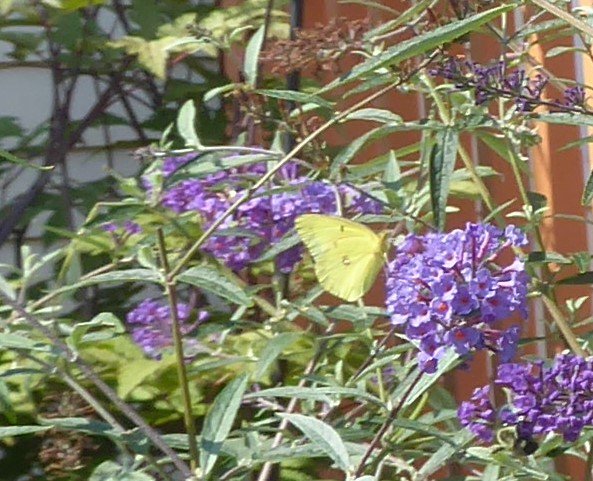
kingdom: Animalia
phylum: Arthropoda
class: Insecta
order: Lepidoptera
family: Pieridae
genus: Colias
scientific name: Colias philodice
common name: Clouded Sulphur
